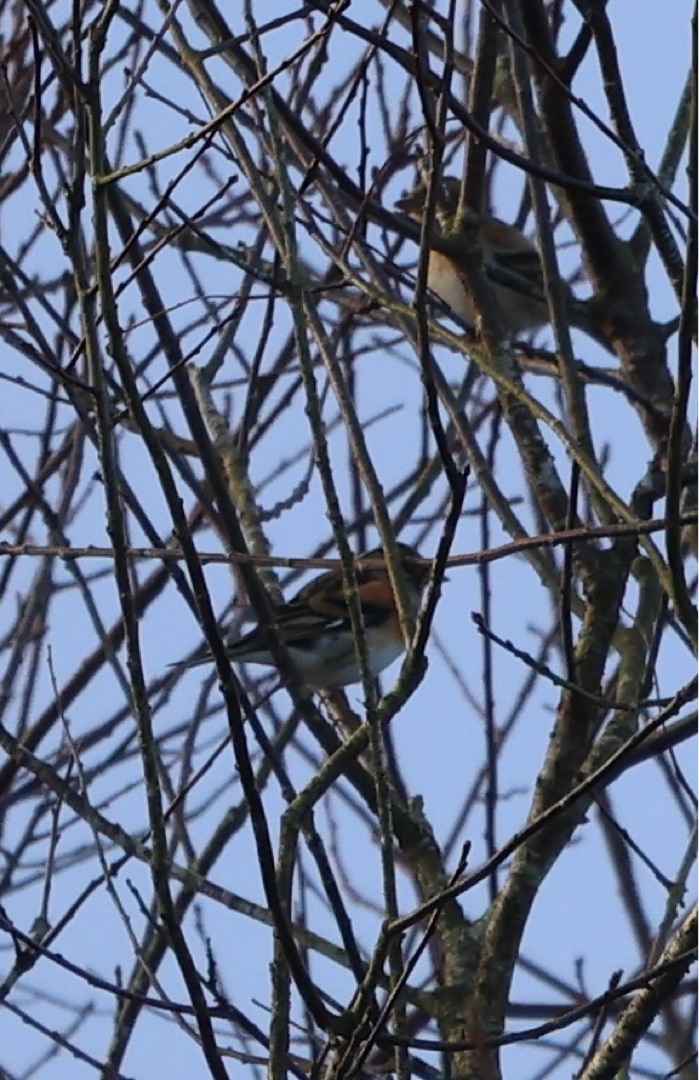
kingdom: Animalia
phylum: Chordata
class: Aves
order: Passeriformes
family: Fringillidae
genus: Fringilla
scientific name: Fringilla montifringilla
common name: Kvækerfinke
